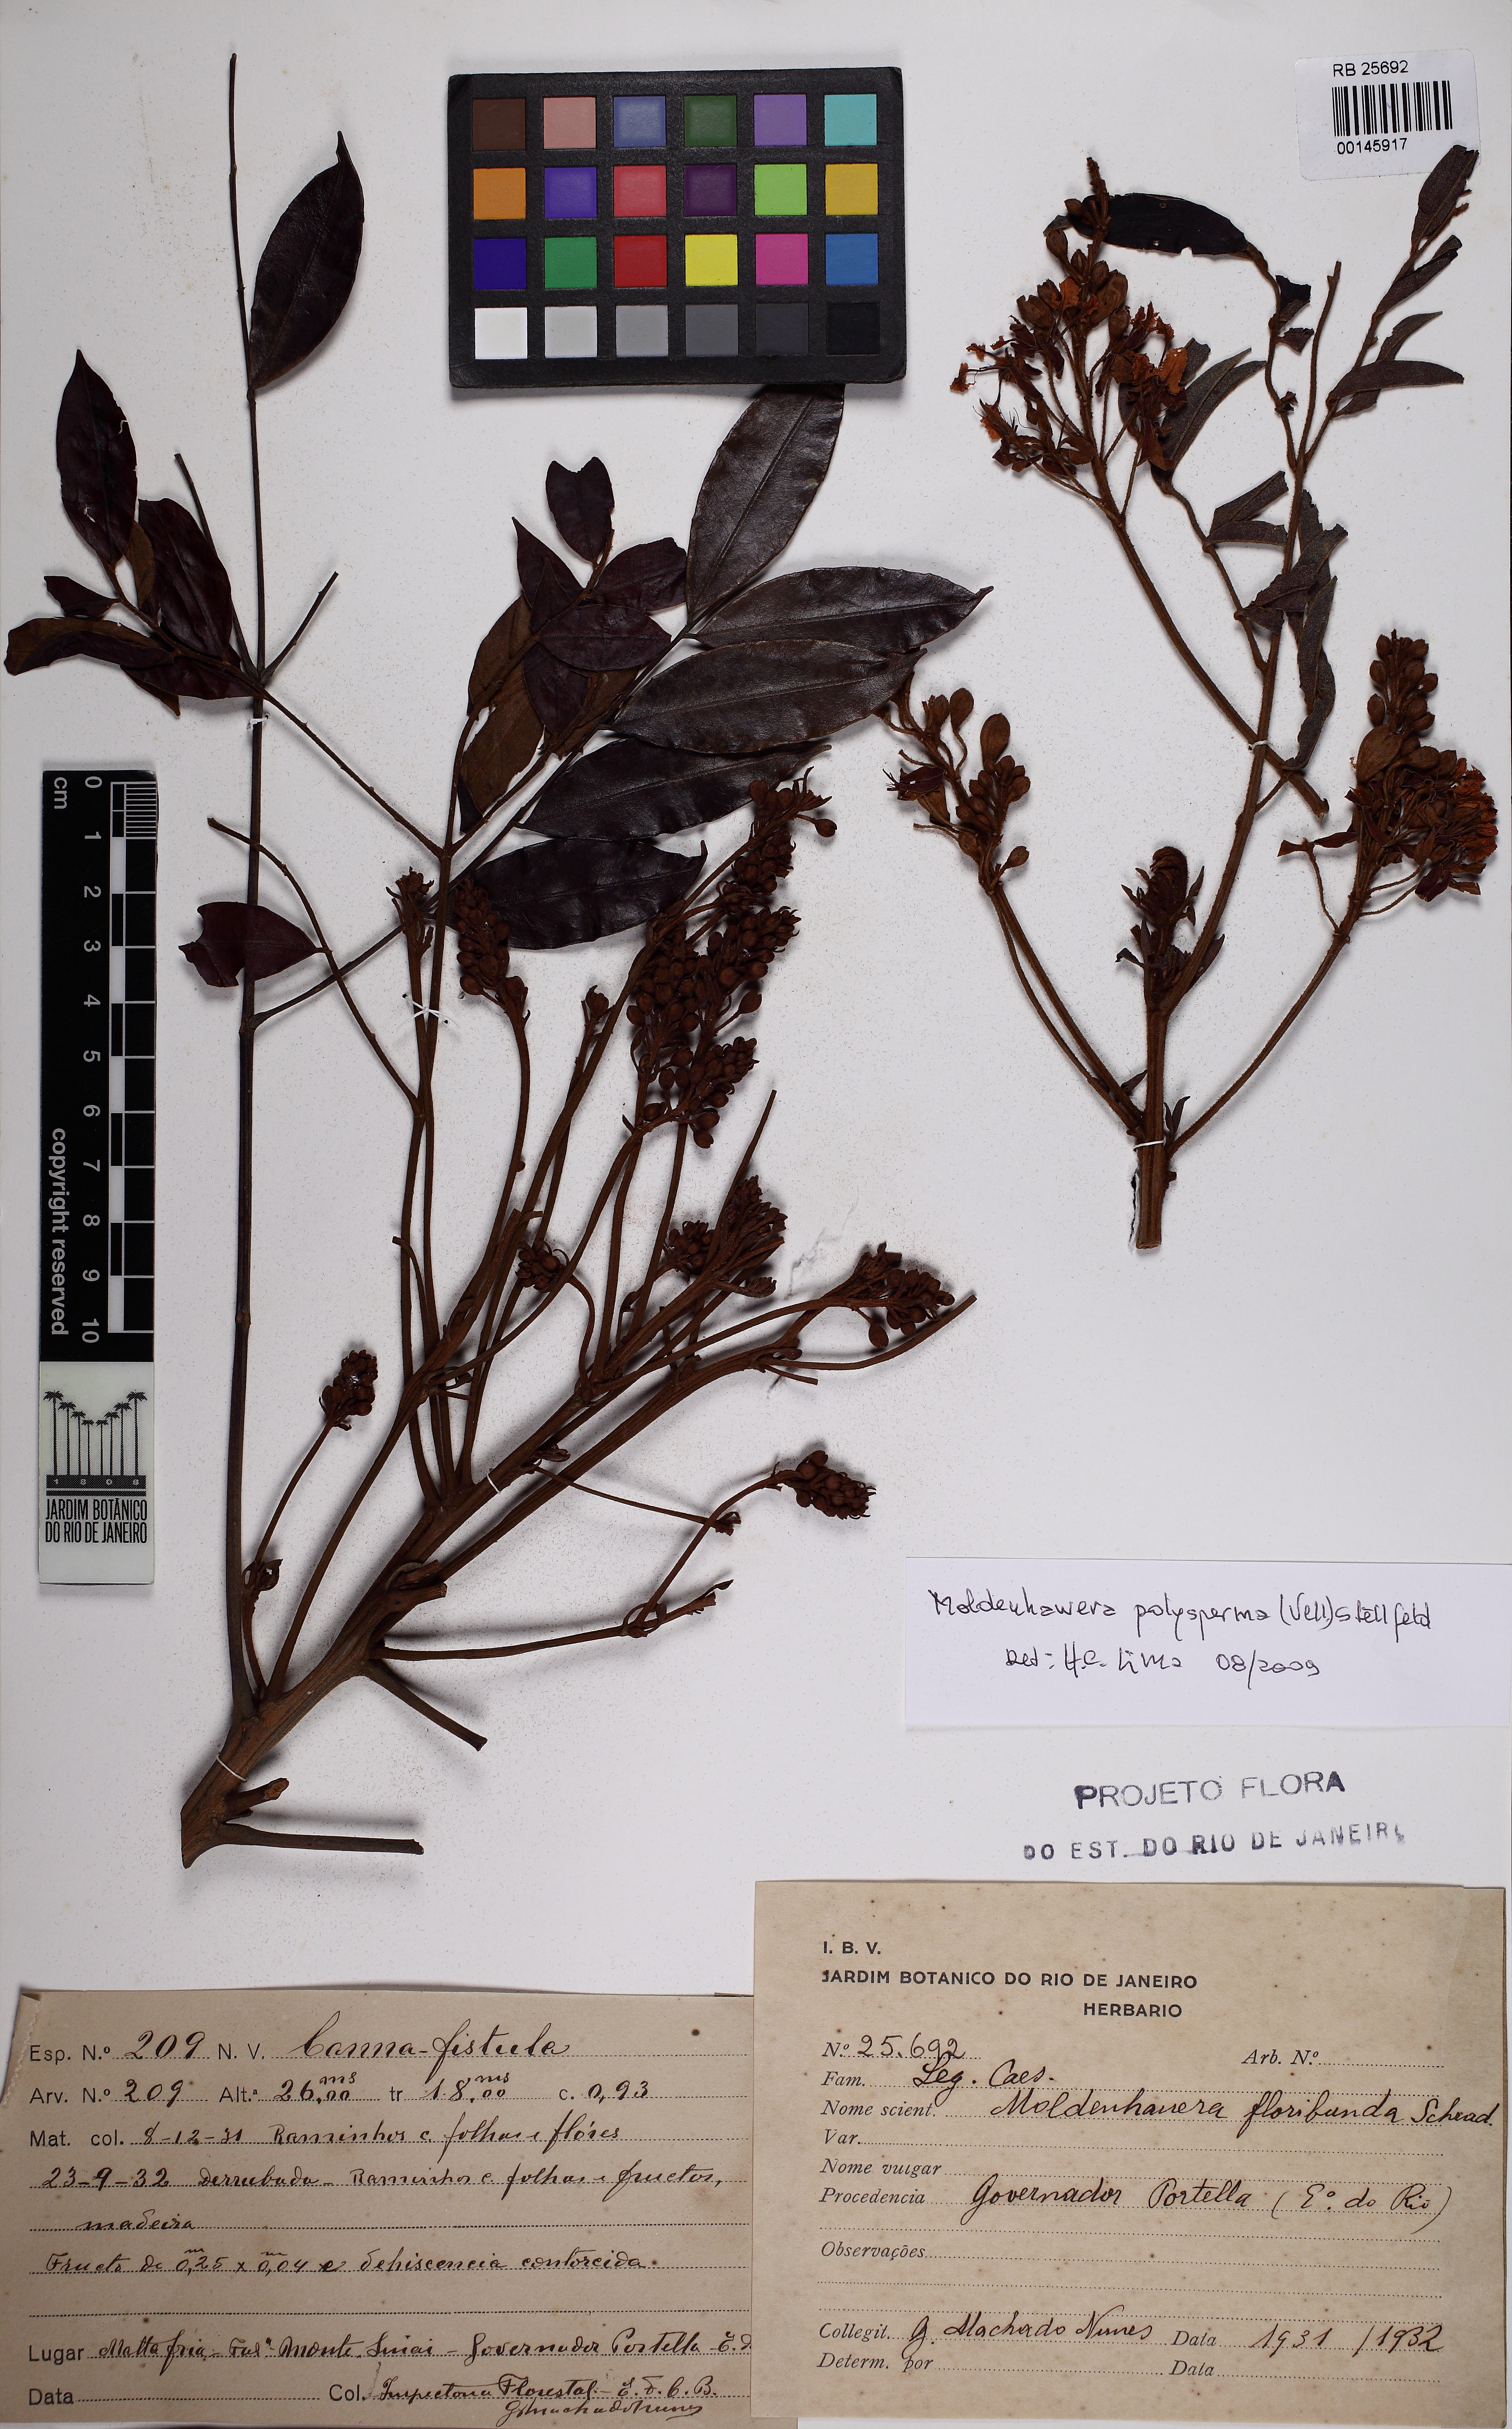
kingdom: Plantae
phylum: Tracheophyta
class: Magnoliopsida
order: Fabales
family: Fabaceae
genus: Moldenhawera
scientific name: Moldenhawera floribunda
